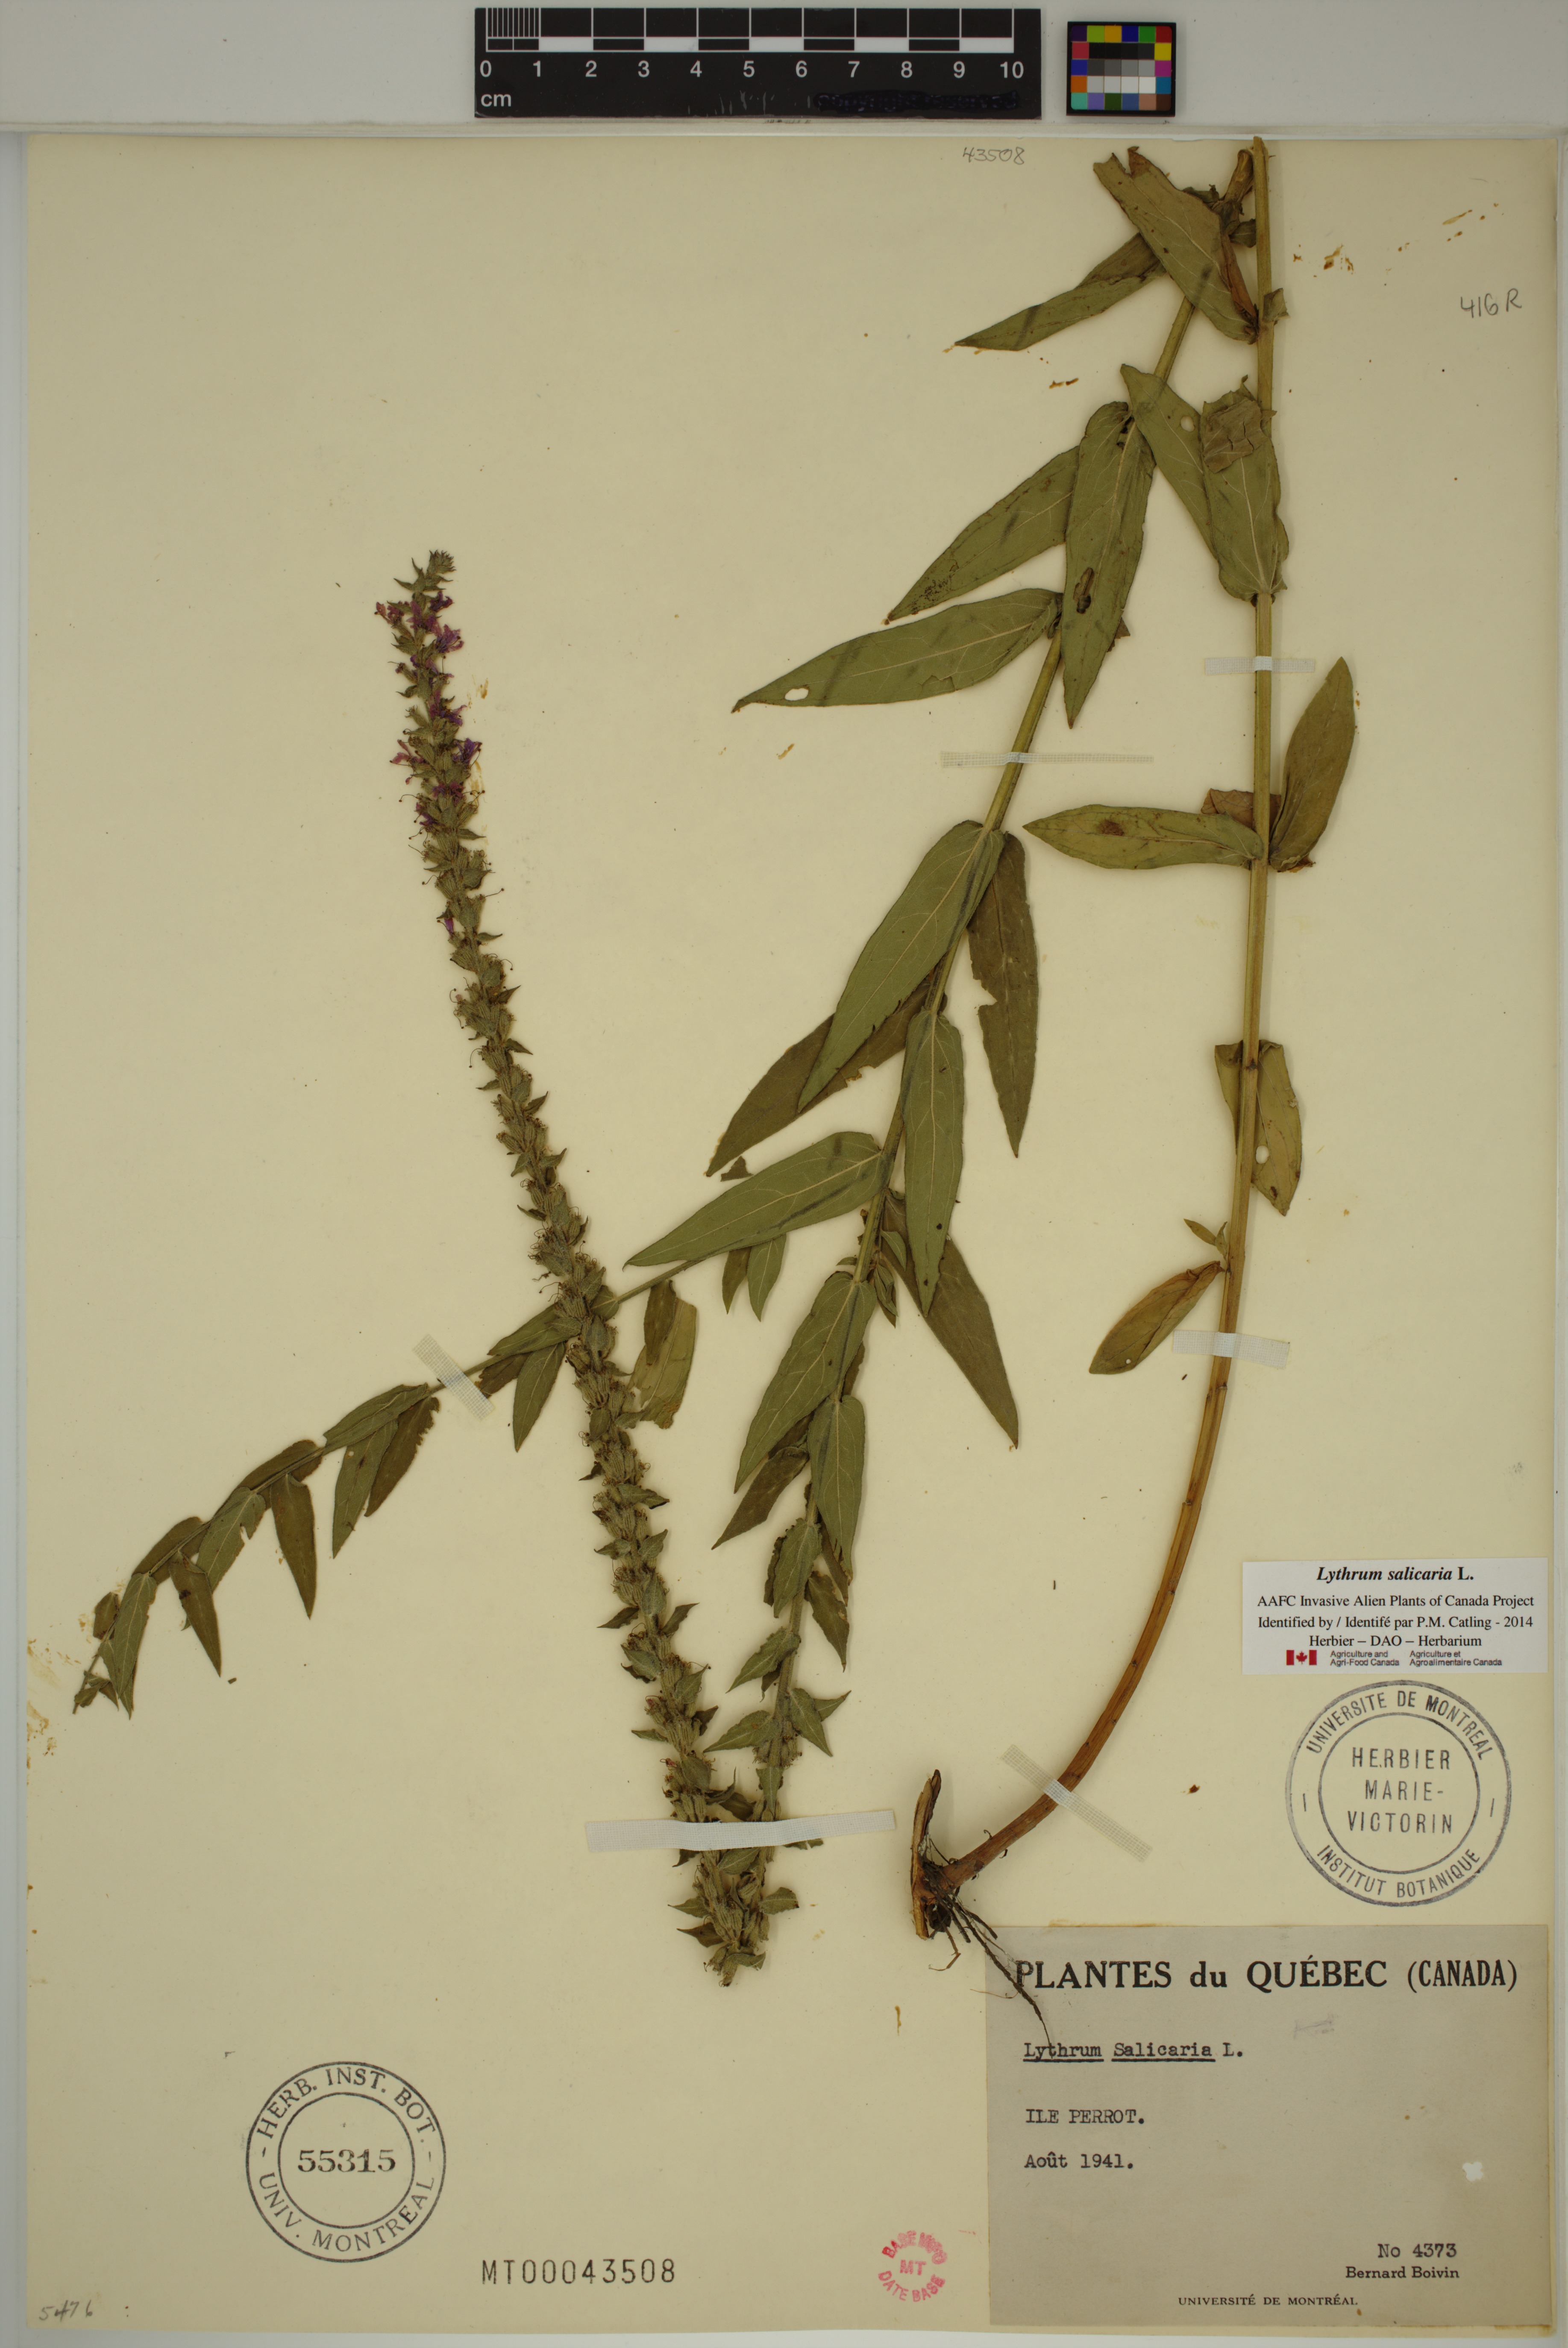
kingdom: Plantae
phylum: Tracheophyta
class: Magnoliopsida
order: Myrtales
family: Lythraceae
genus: Lythrum
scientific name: Lythrum salicaria
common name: Purple loosestrife
